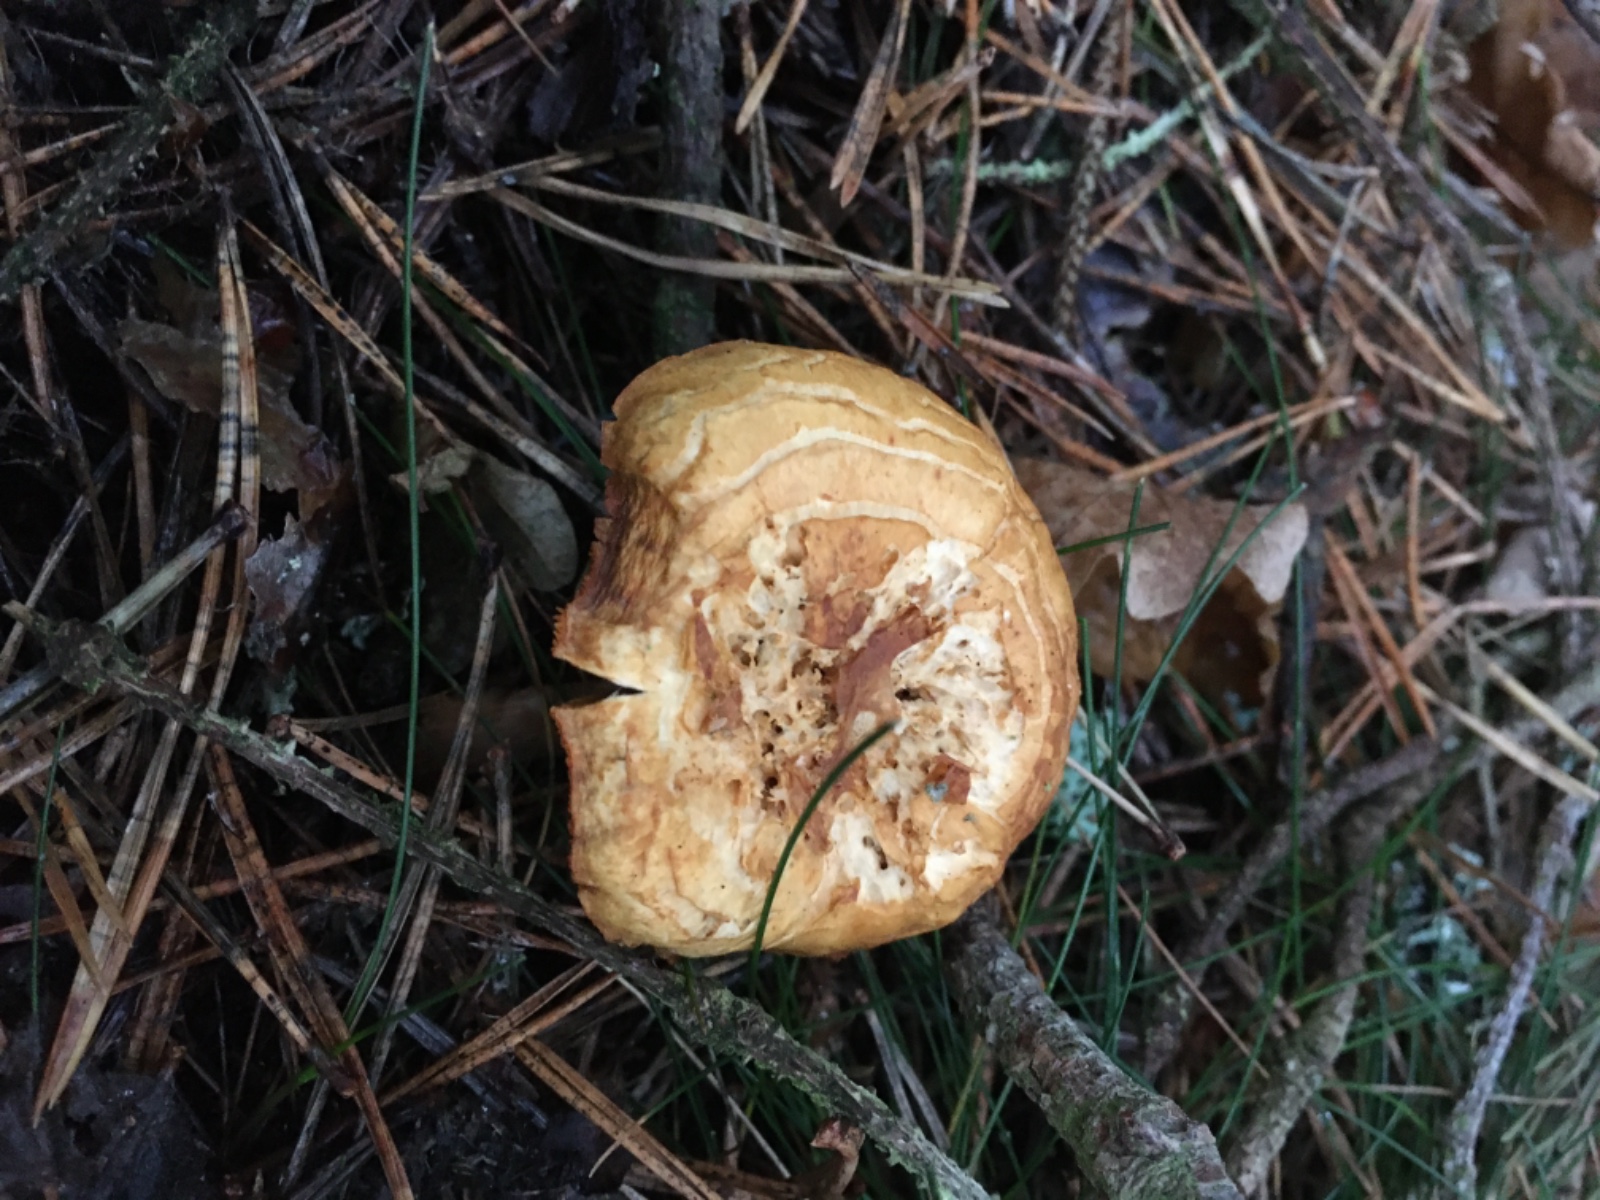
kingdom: Fungi
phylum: Basidiomycota
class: Agaricomycetes
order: Agaricales
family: Hymenogastraceae
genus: Gymnopilus
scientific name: Gymnopilus penetrans
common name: plettet flammehat
